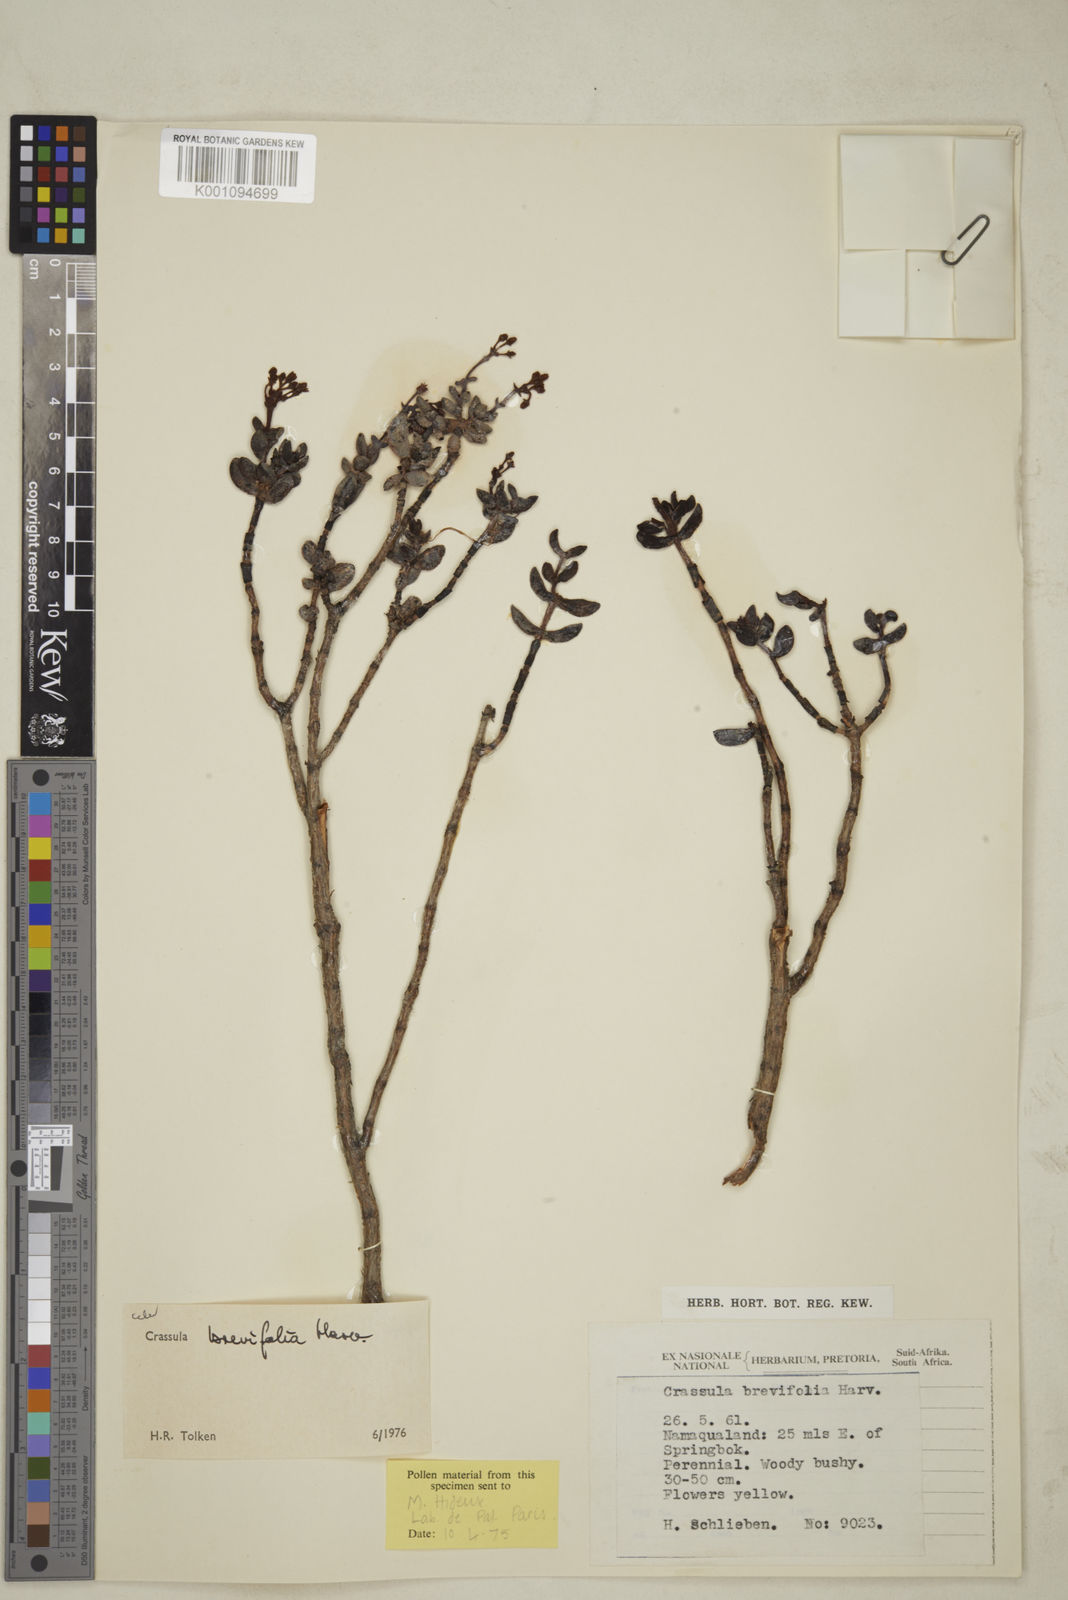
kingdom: Plantae
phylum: Tracheophyta
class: Magnoliopsida
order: Saxifragales
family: Crassulaceae
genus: Crassula
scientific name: Crassula brevifolia
